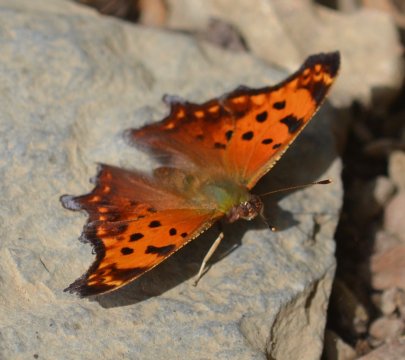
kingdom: Animalia
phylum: Arthropoda
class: Insecta
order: Lepidoptera
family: Nymphalidae
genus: Polygonia
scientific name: Polygonia comma
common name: Eastern Comma
